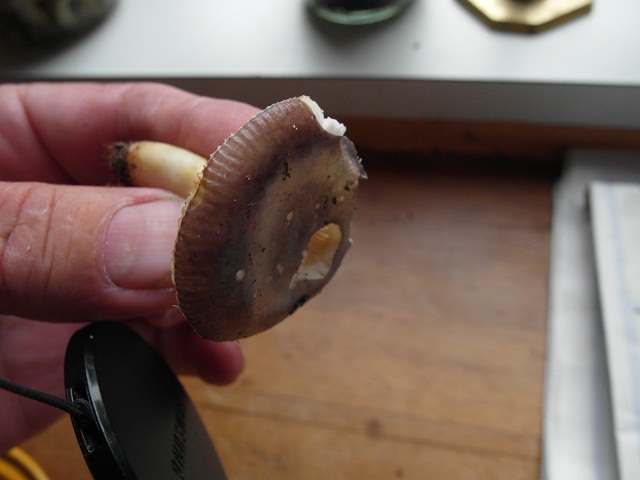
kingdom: Fungi
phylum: Basidiomycota
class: Agaricomycetes
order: Russulales
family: Russulaceae
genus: Russula
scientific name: Russula puellaris
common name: gulstokket skørhat
